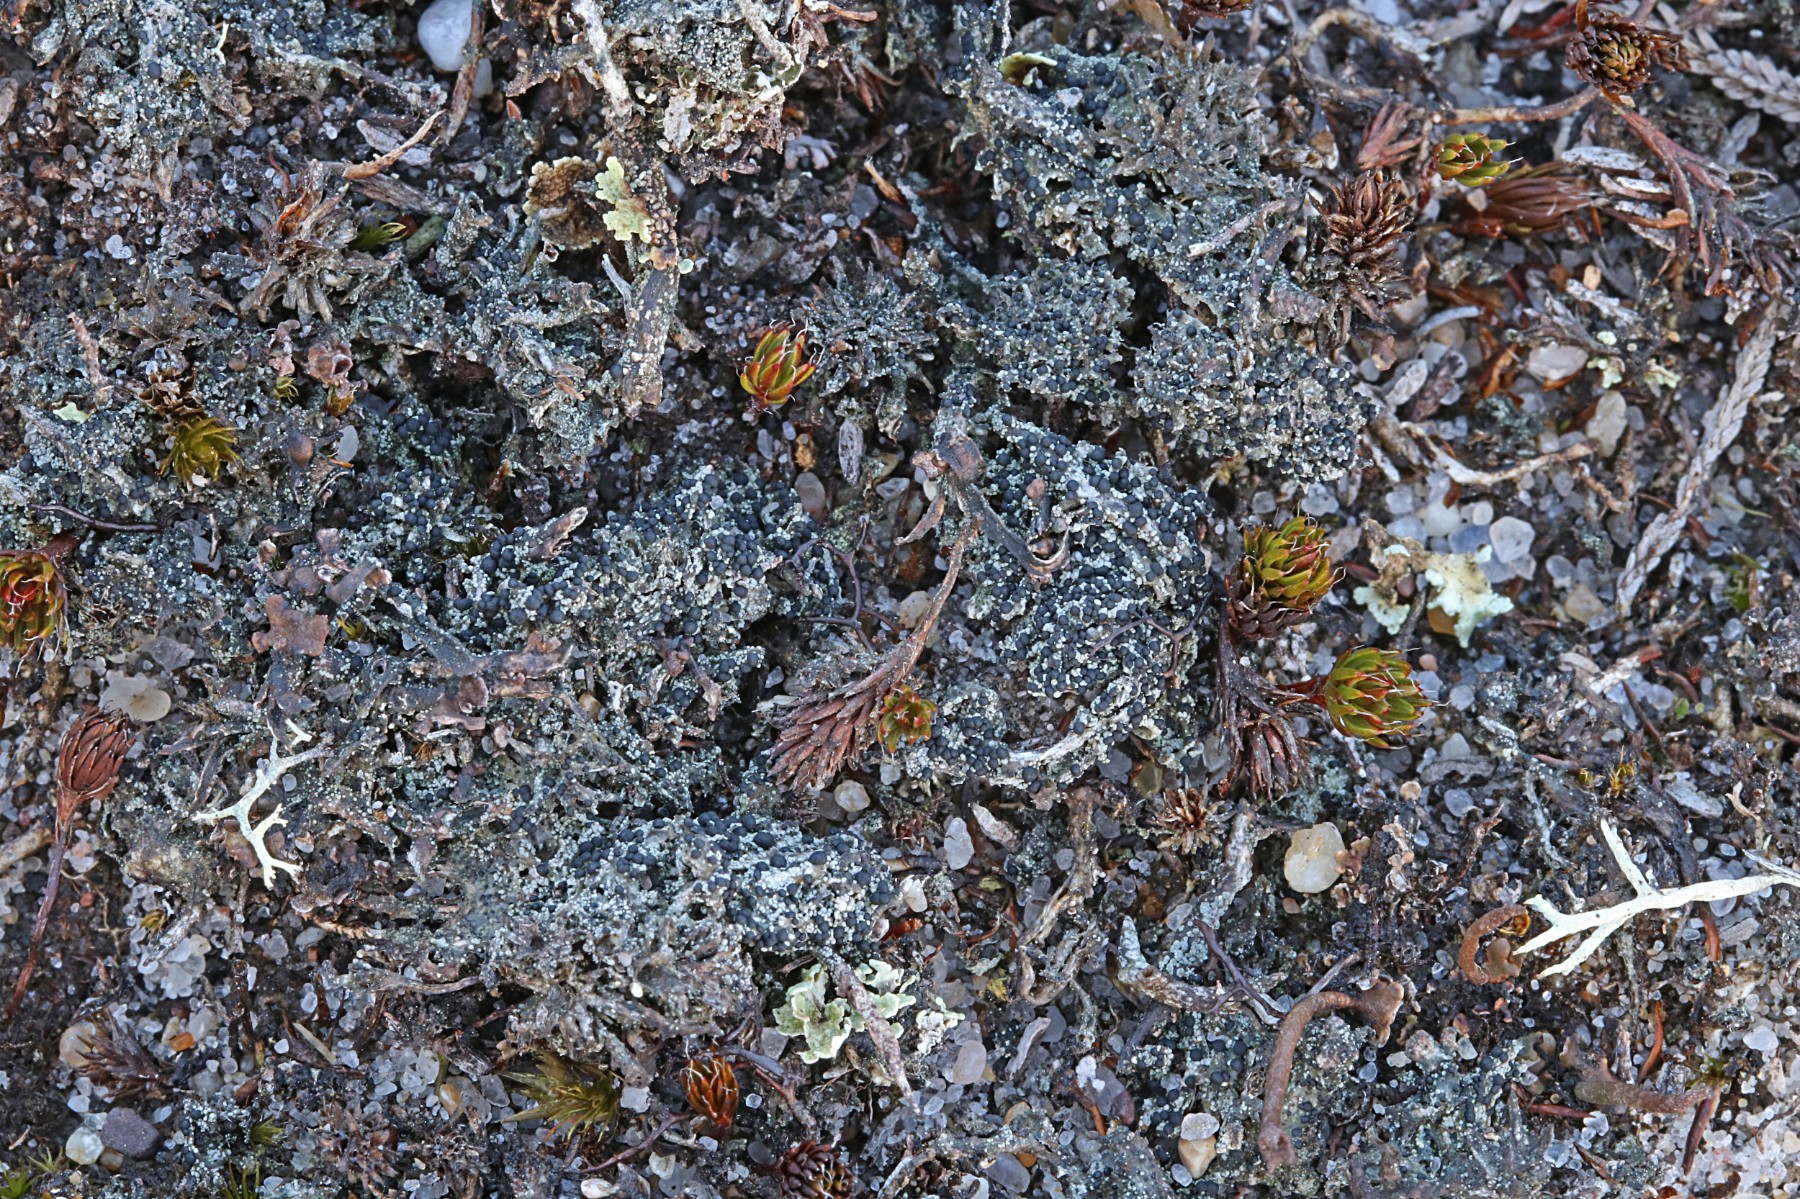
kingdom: Fungi
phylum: Ascomycota
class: Lecanoromycetes
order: Lecanorales
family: Byssolomataceae
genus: Micarea
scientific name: Micarea lignaria
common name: tørve-knaplav
